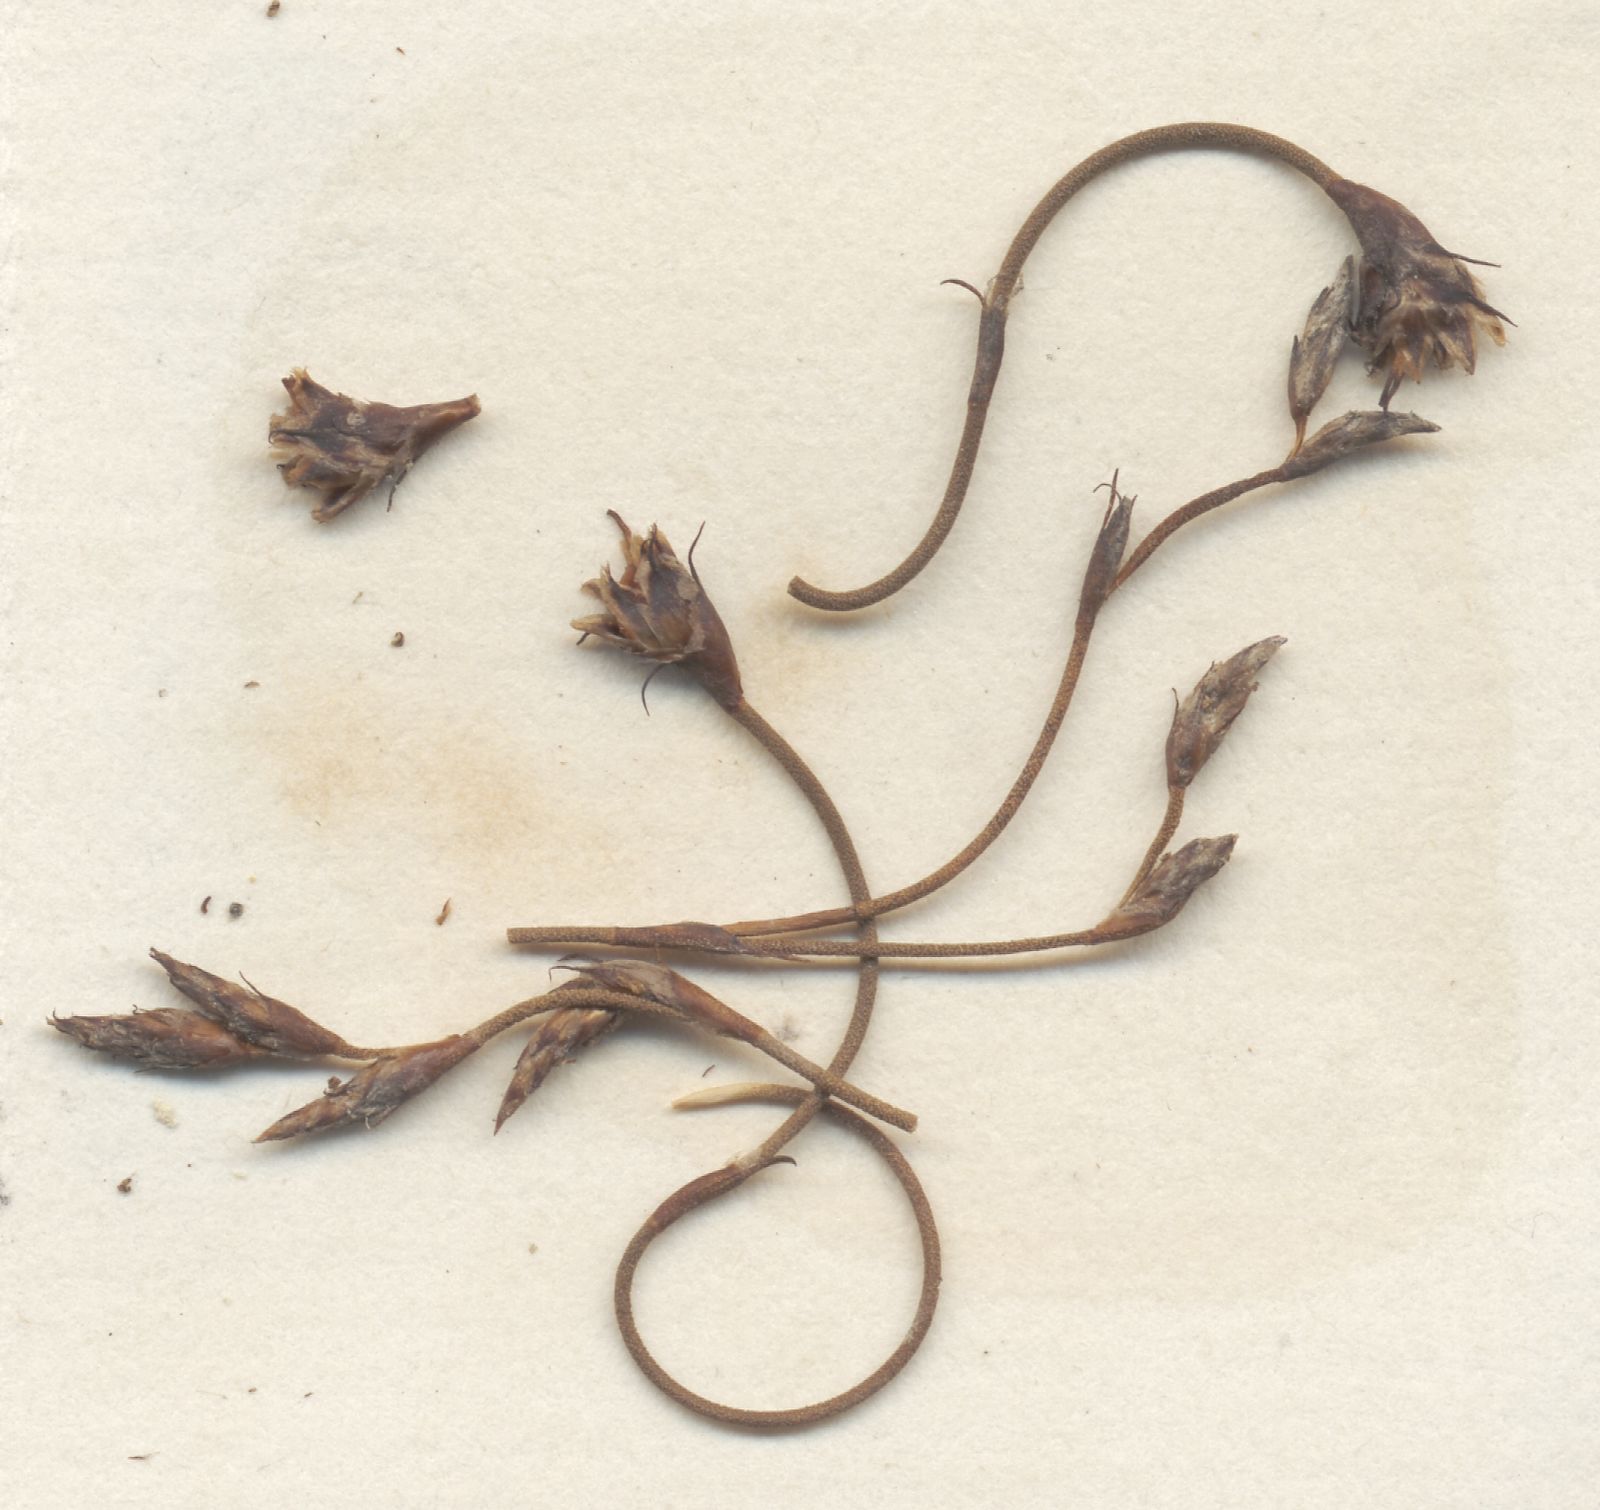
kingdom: Plantae
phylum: Tracheophyta
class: Liliopsida
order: Poales
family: Restionaceae
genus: Restio
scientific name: Restio cincinnatus
